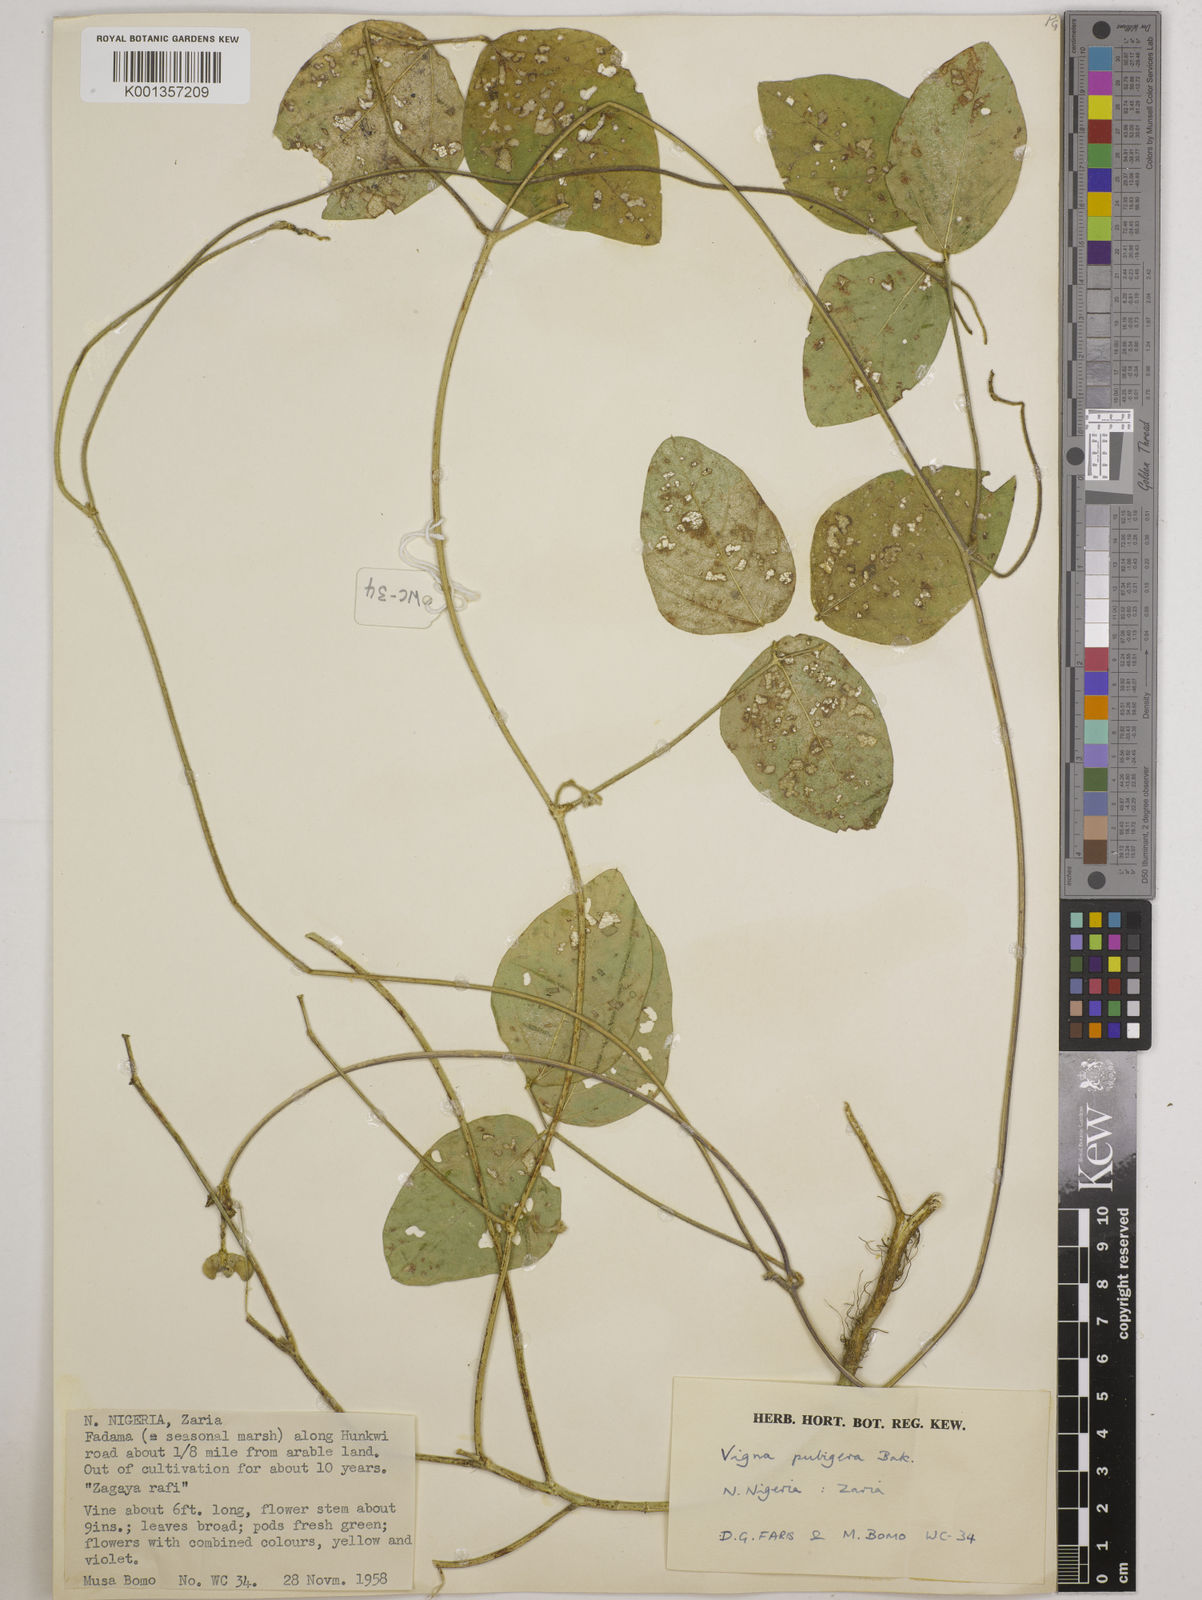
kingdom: Plantae
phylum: Tracheophyta
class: Magnoliopsida
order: Fabales
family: Fabaceae
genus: Vigna
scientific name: Vigna ambacensis
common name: Tsarkiyan zomo
